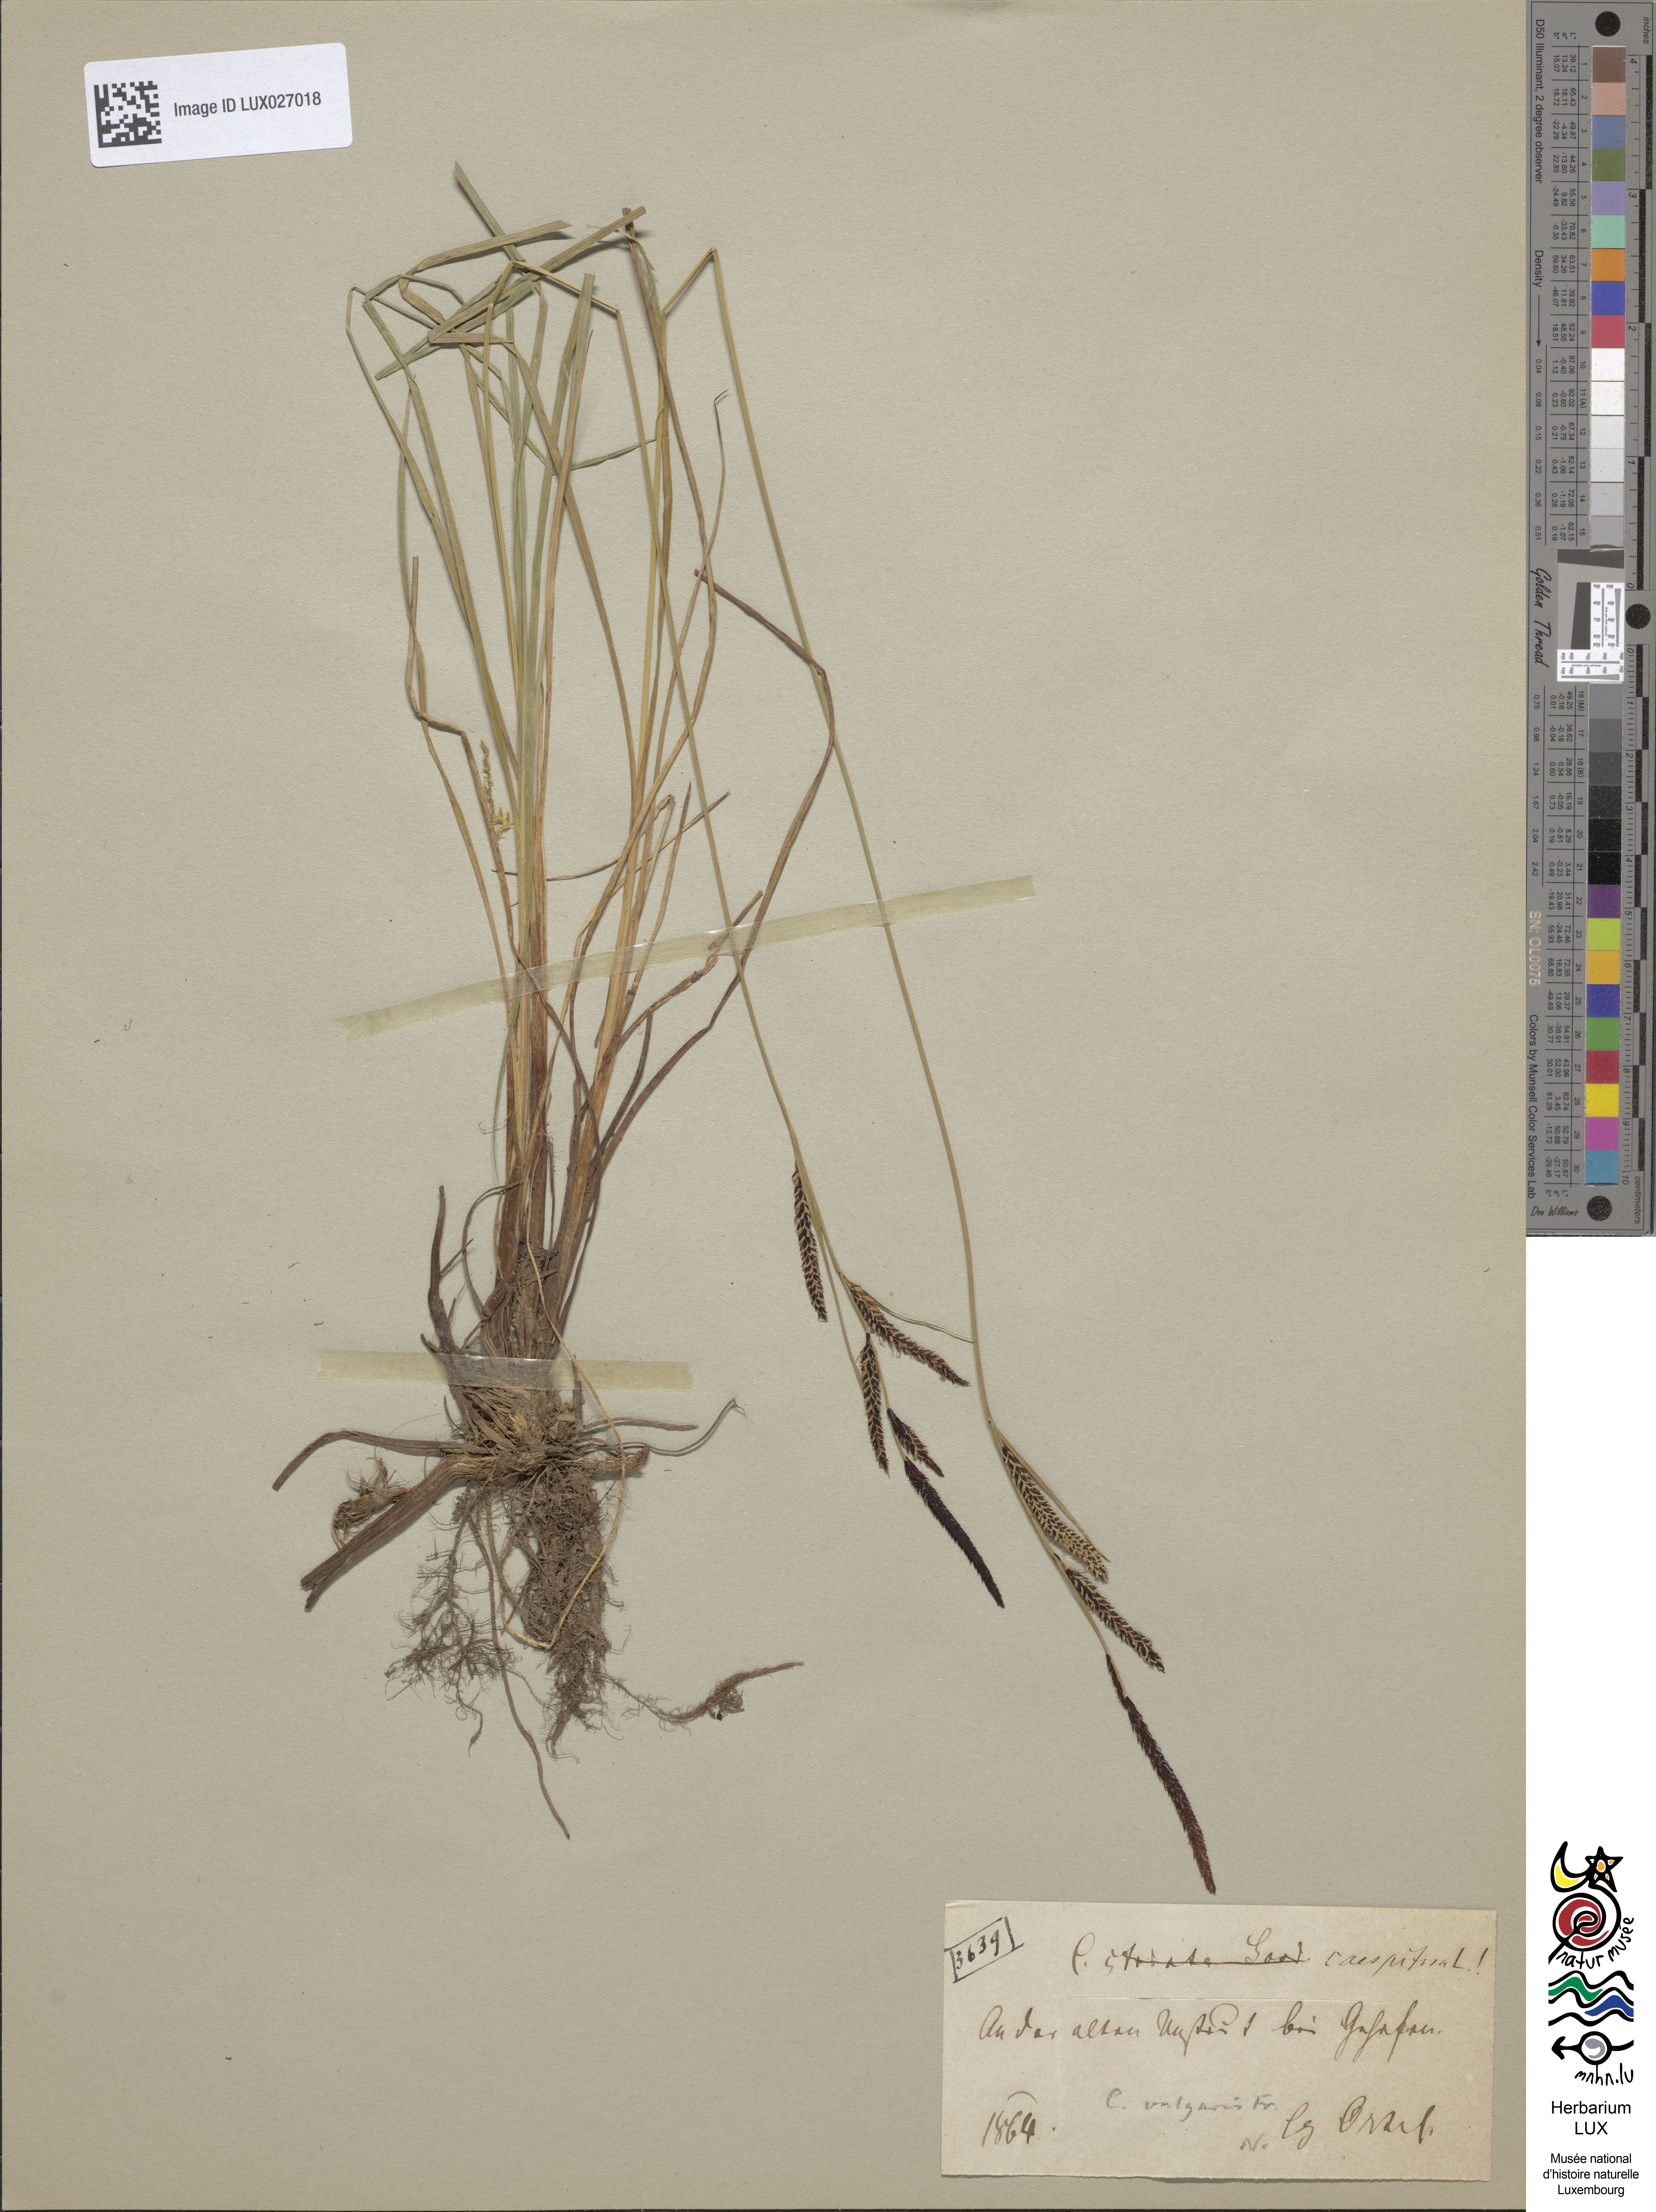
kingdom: Plantae
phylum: Tracheophyta
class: Liliopsida
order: Poales
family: Cyperaceae
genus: Carex
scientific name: Carex cespitosa
